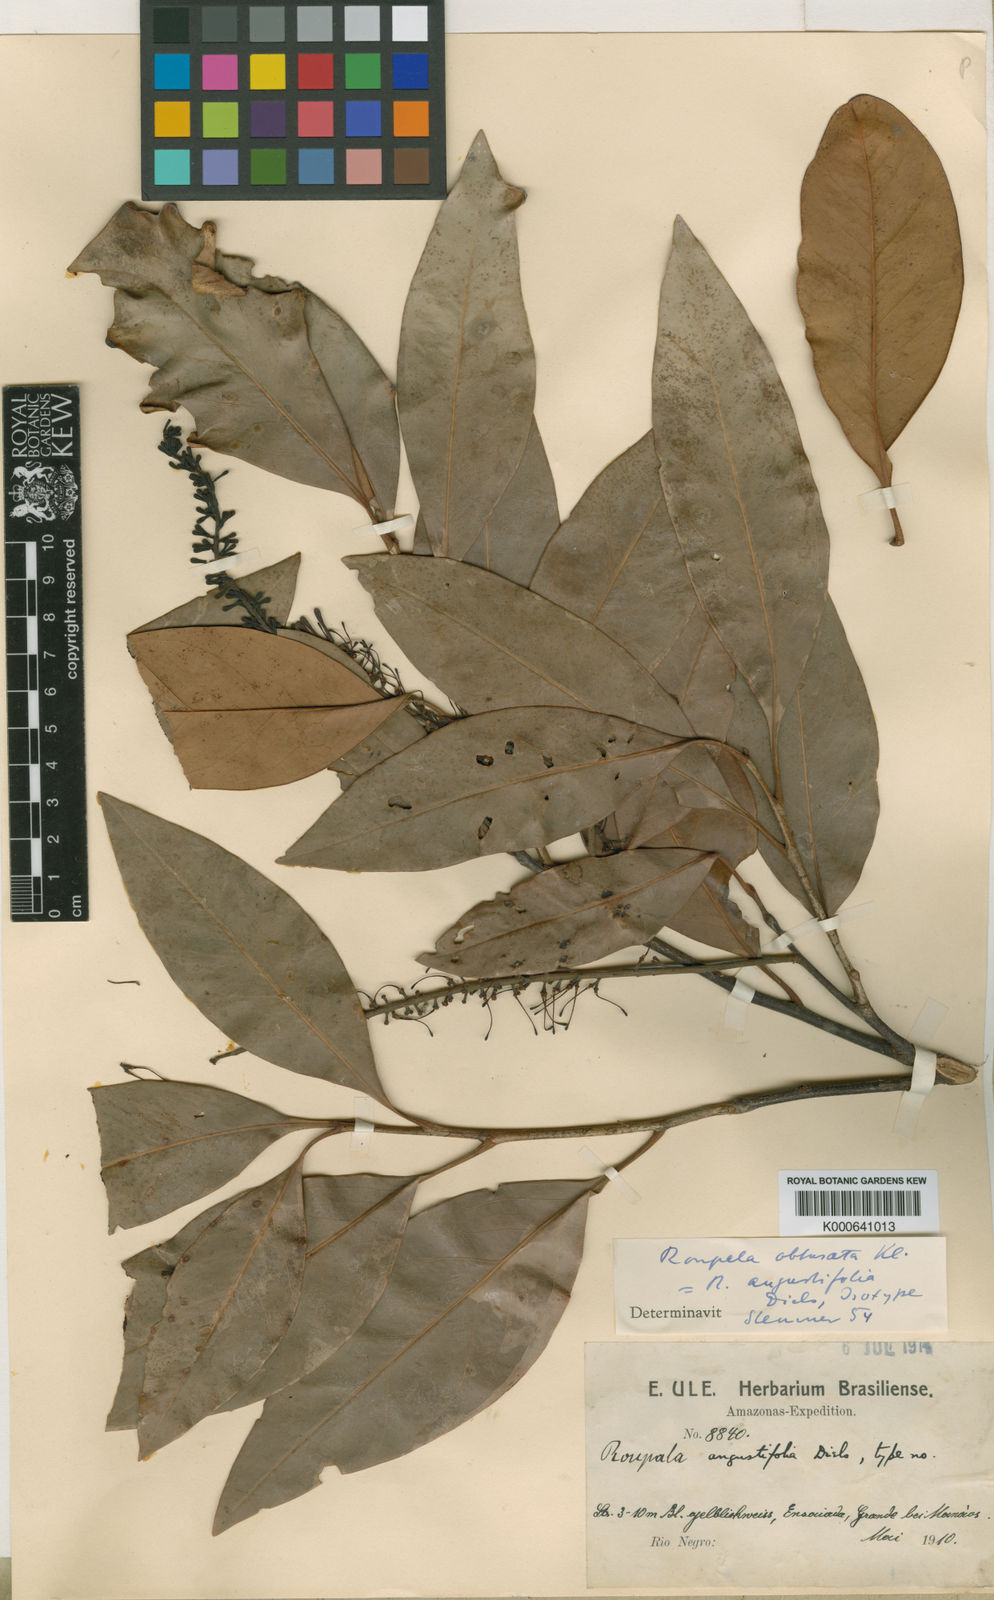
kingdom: Plantae
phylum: Tracheophyta
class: Magnoliopsida
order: Proteales
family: Proteaceae
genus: Roupala
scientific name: Roupala obtusata
